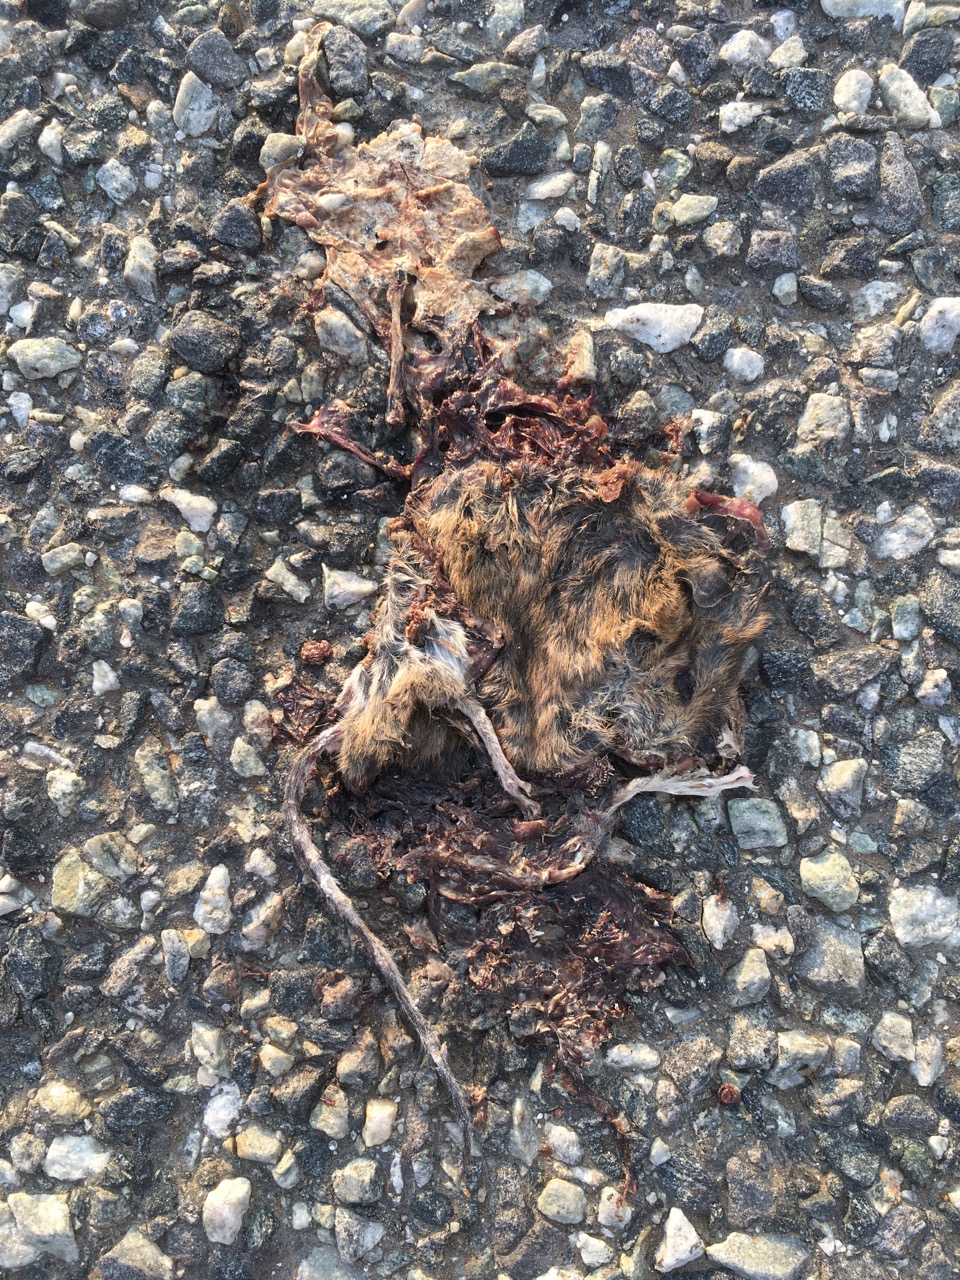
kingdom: Animalia
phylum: Chordata
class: Mammalia
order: Rodentia
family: Muridae
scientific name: Muridae
